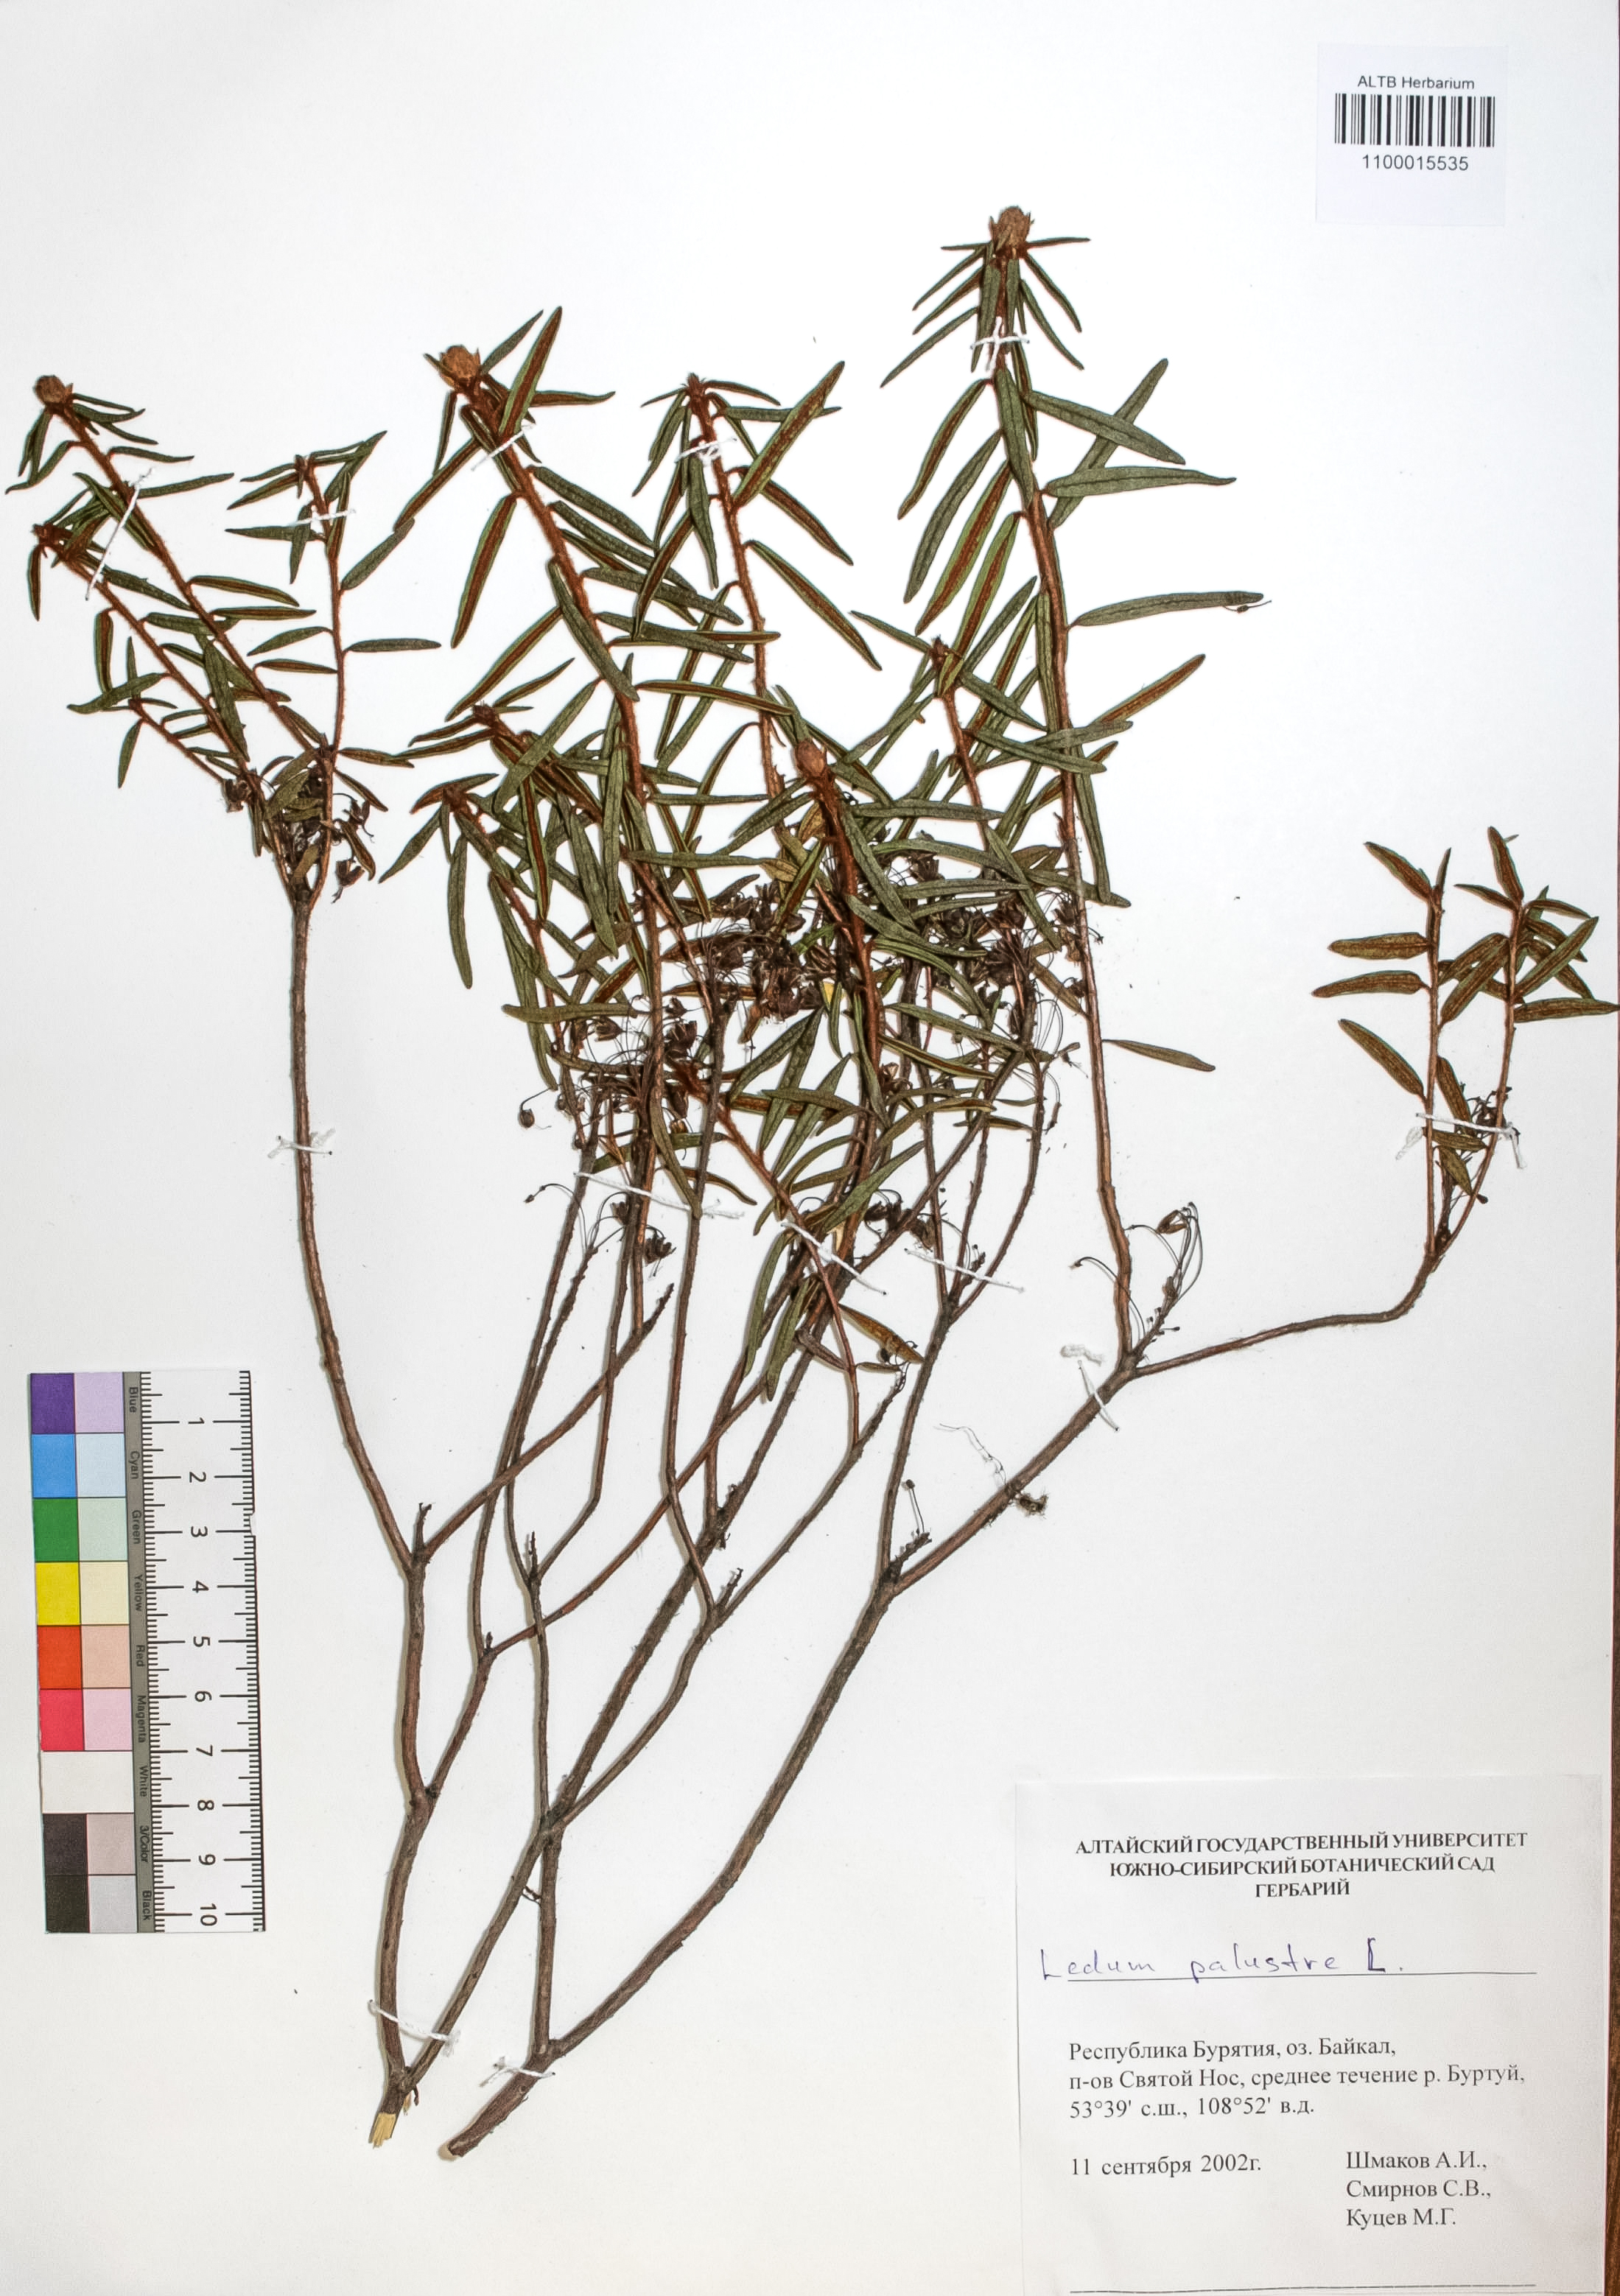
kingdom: Plantae
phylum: Tracheophyta
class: Magnoliopsida
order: Ericales
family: Ericaceae
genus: Rhododendron
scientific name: Rhododendron tomentosum
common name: Marsh labrador tea
